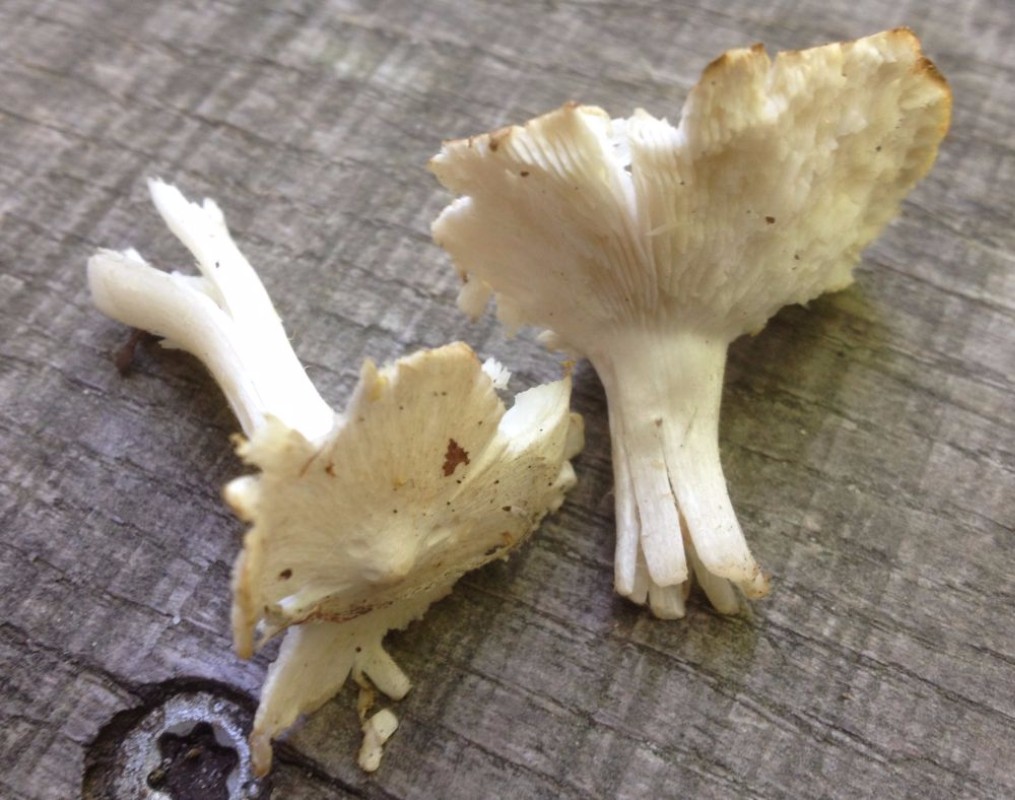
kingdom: Fungi
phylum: Basidiomycota
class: Agaricomycetes
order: Agaricales
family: Tricholomataceae
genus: Tricholoma
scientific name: Tricholoma argyraceum
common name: spids ridderhat
